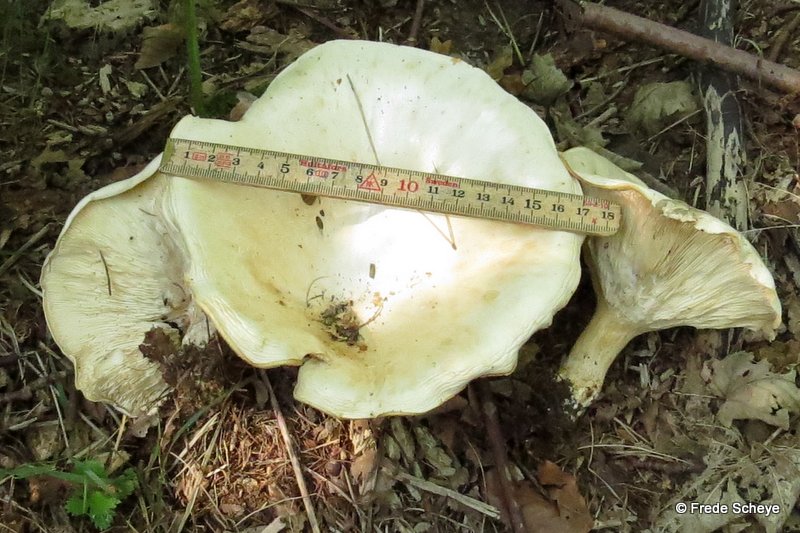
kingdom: Fungi
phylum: Basidiomycota
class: Agaricomycetes
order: Agaricales
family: Tricholomataceae
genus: Aspropaxillus
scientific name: Aspropaxillus giganteus
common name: kæmpe-tragtridderhat
